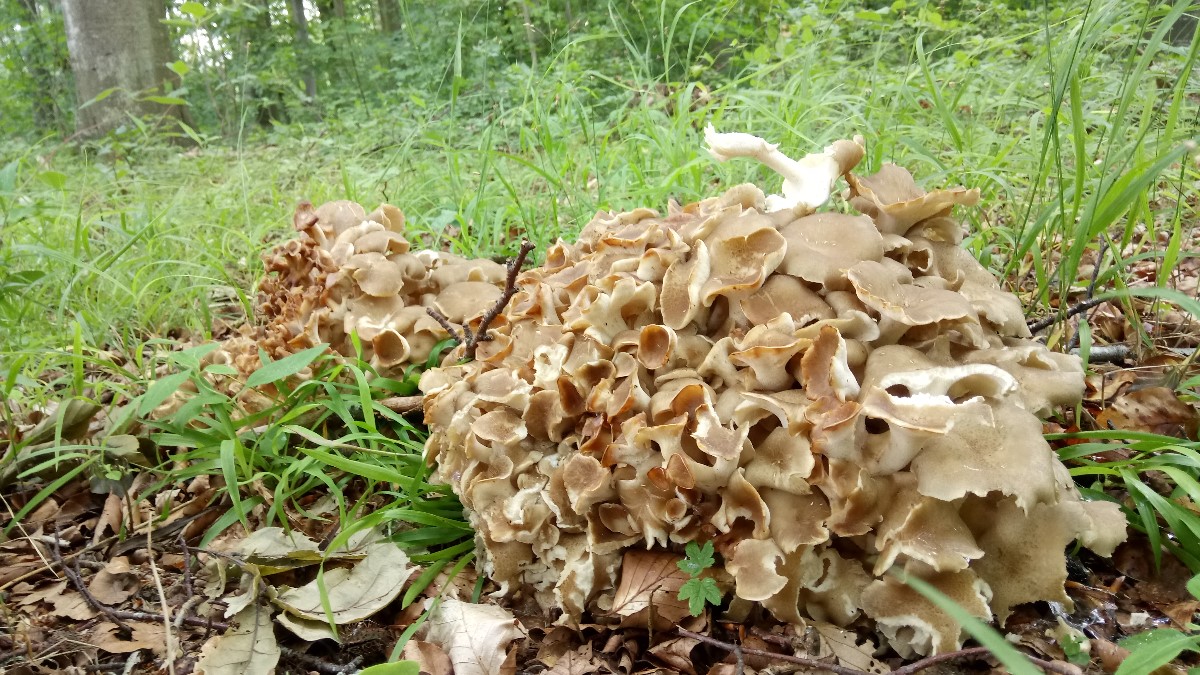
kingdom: Fungi
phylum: Basidiomycota
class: Agaricomycetes
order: Polyporales
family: Polyporaceae
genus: Polyporus
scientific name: Polyporus umbellatus
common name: skærmformet stilkporesvamp
